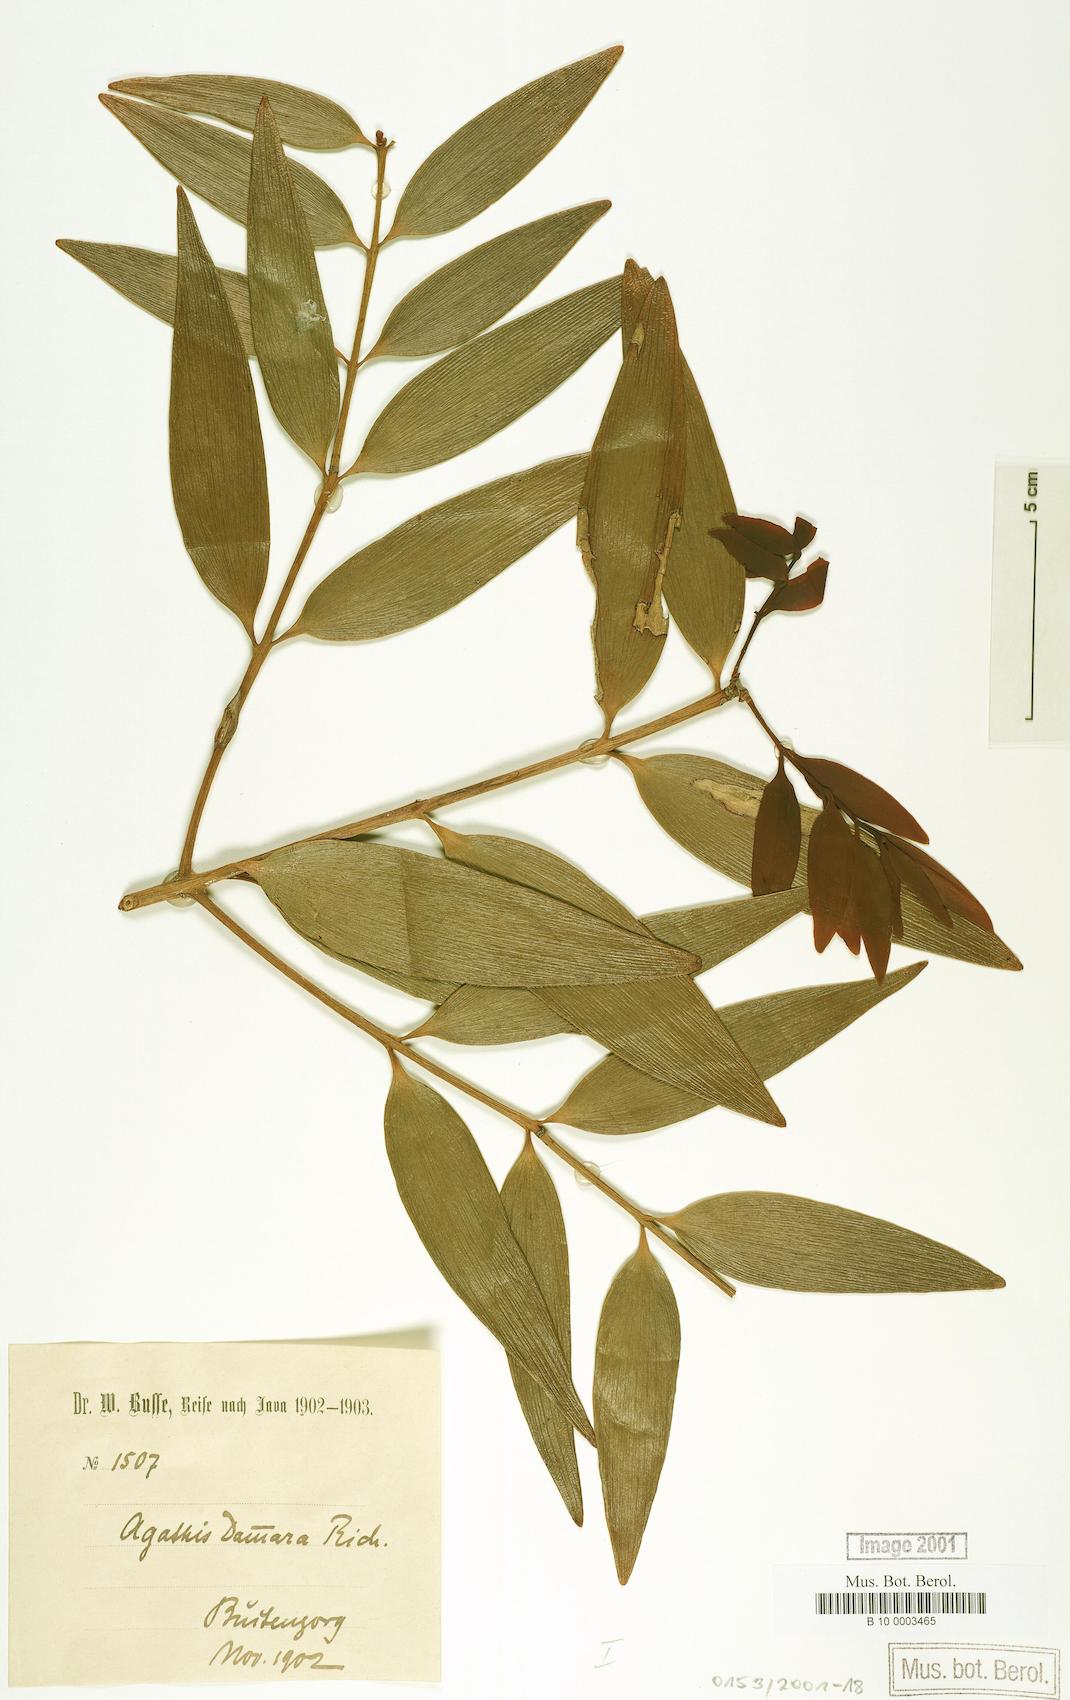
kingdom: Plantae
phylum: Tracheophyta
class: Pinopsida
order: Pinales
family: Araucariaceae
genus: Agathis
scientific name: Agathis dammara
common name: Amboina pitch tree
